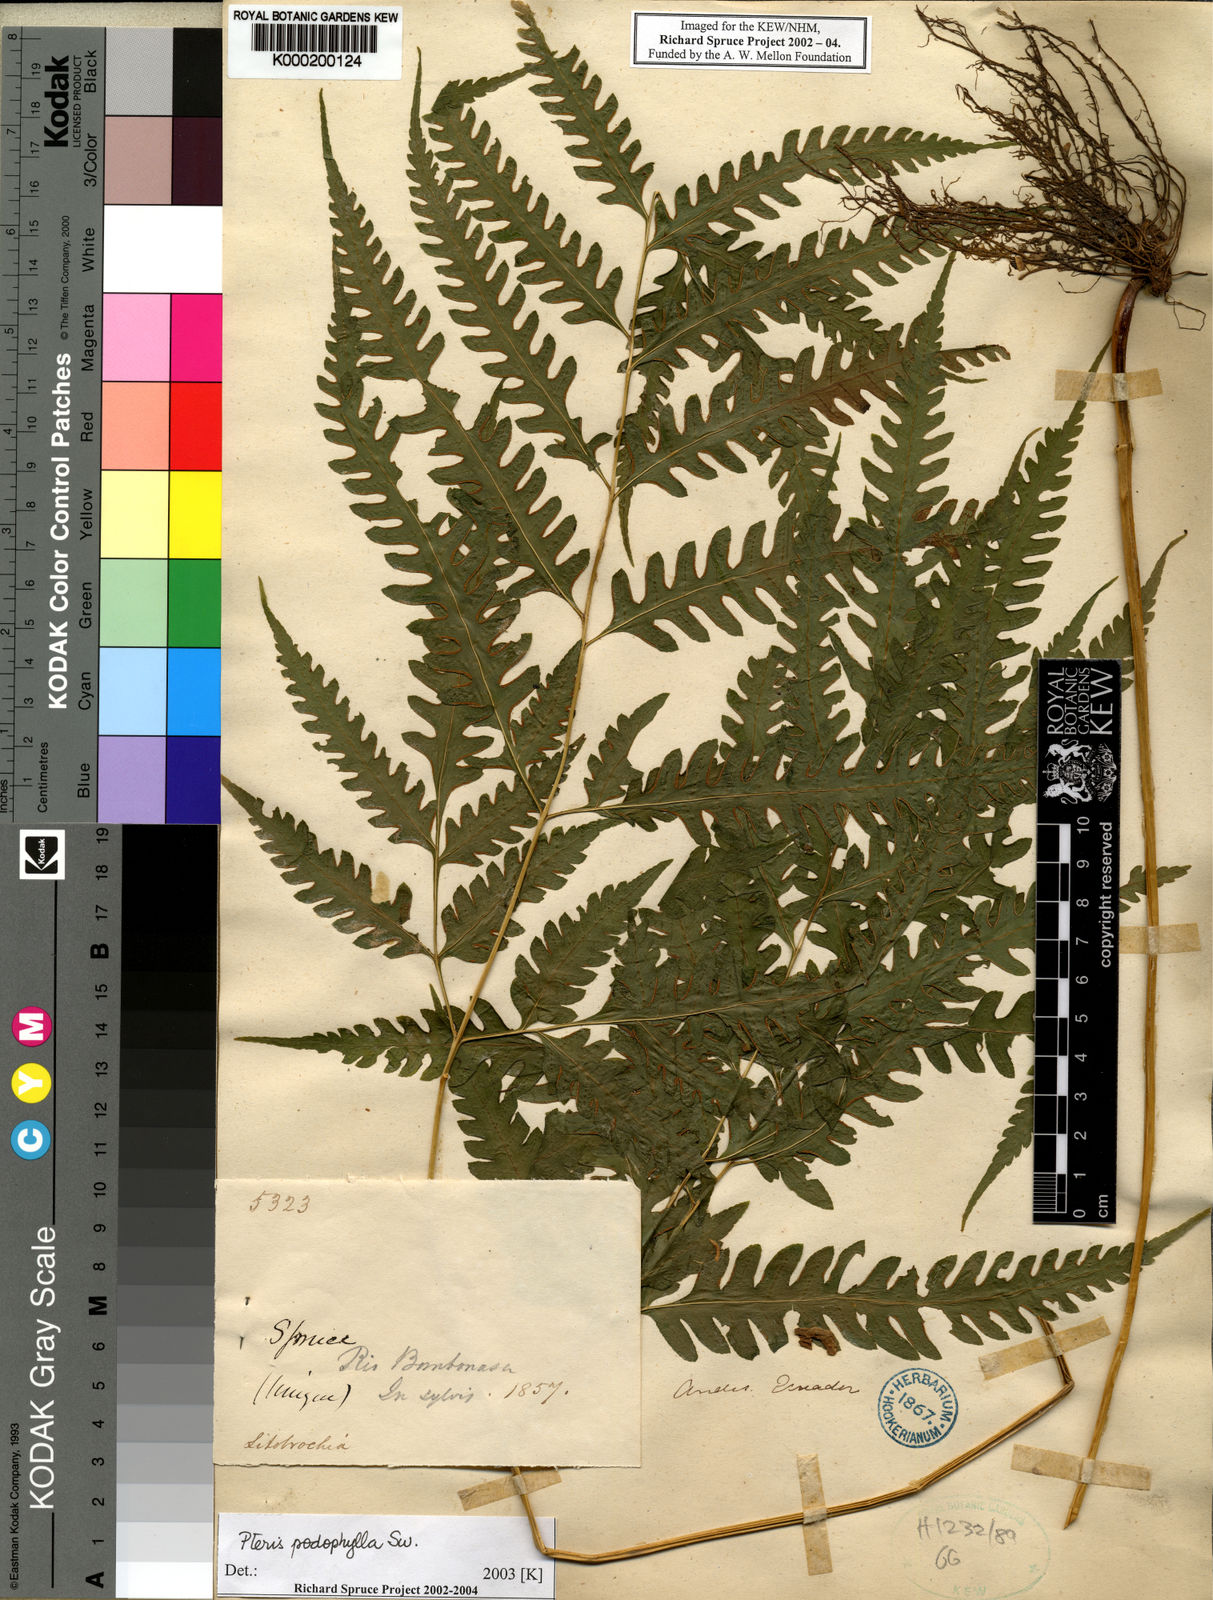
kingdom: Plantae
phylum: Tracheophyta
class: Polypodiopsida
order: Polypodiales
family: Pteridaceae
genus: Pteris
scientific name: Pteris
